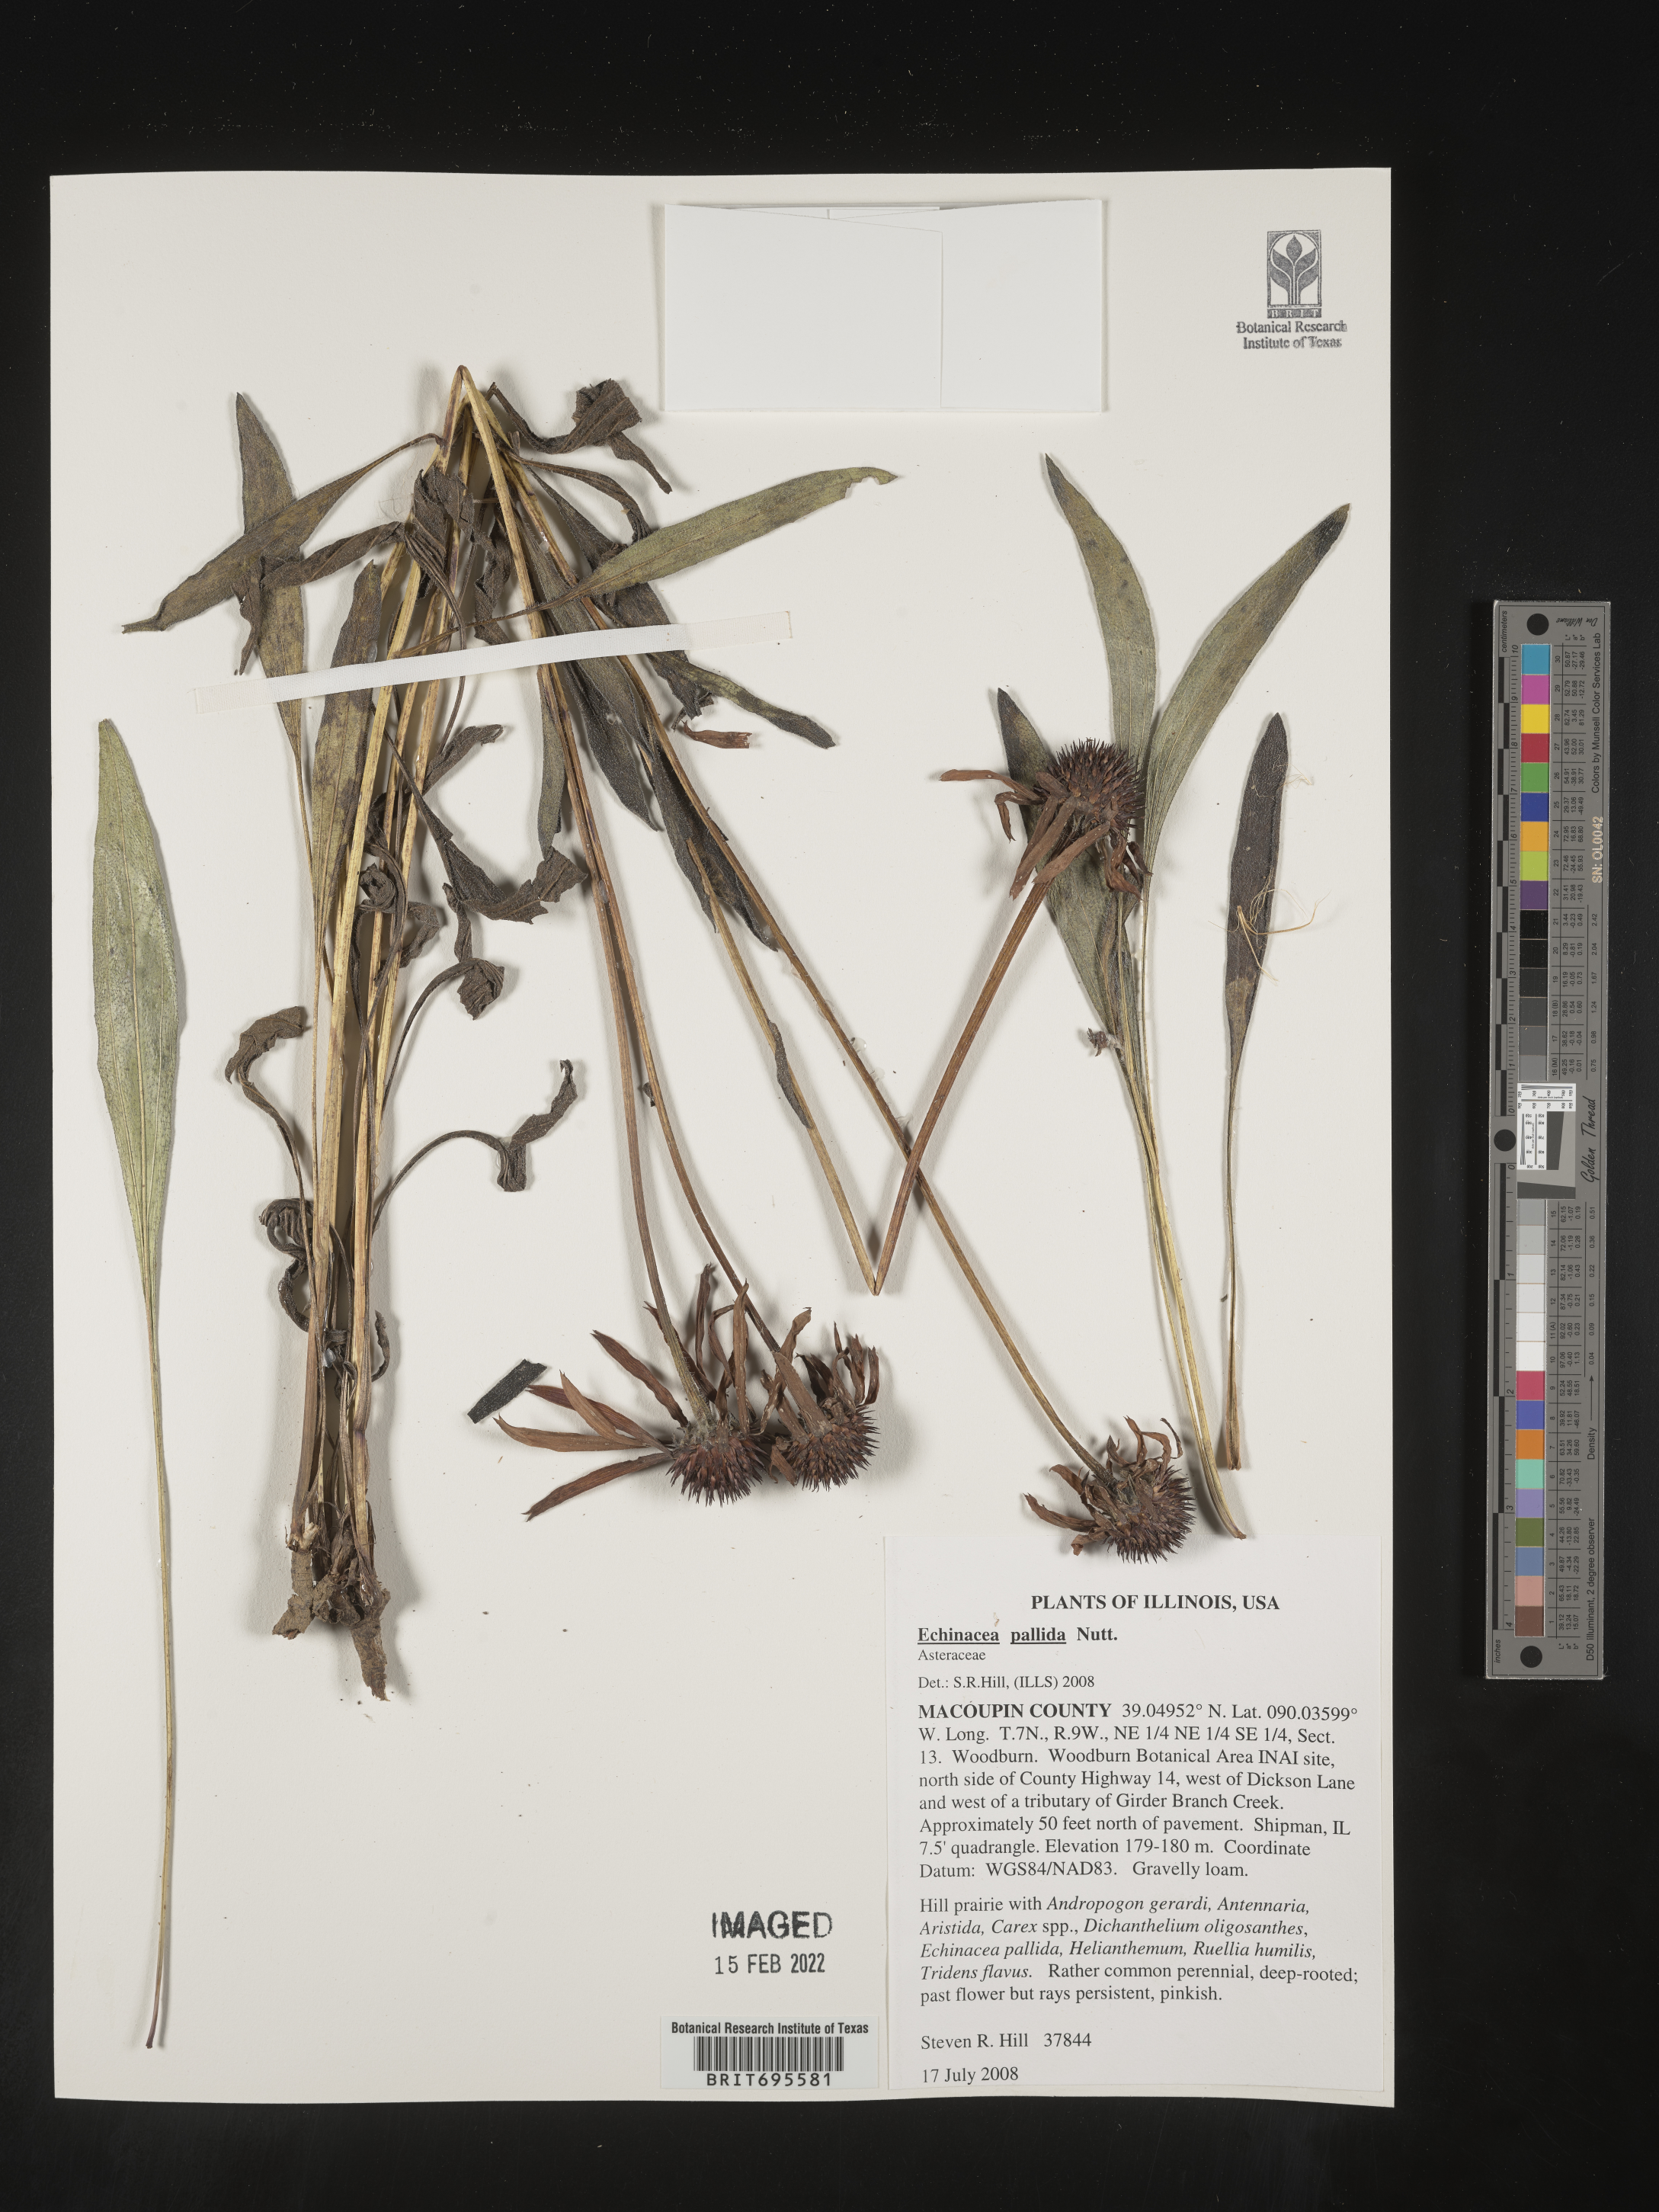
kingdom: Plantae
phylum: Tracheophyta
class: Magnoliopsida
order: Asterales
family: Asteraceae
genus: Echinacea
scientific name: Echinacea pallida
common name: Pale echinacea
